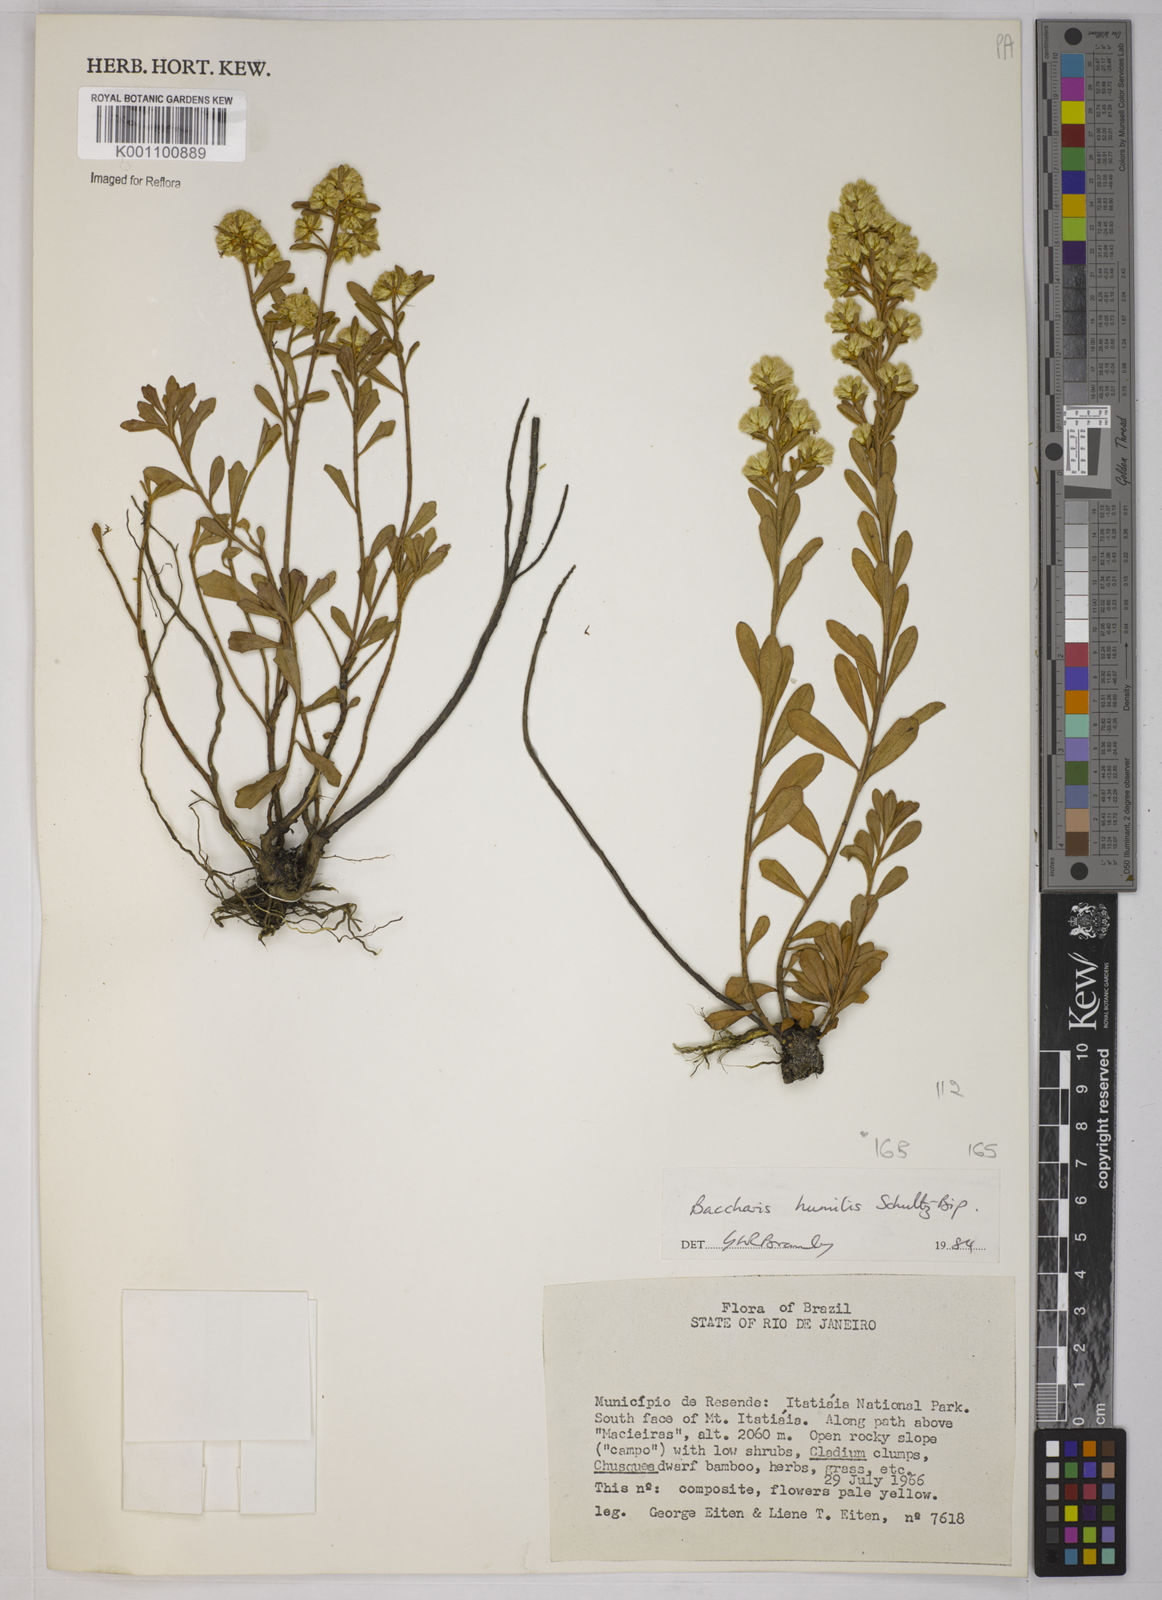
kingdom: Plantae
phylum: Tracheophyta
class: Magnoliopsida
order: Asterales
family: Asteraceae
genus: Baccharis
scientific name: Baccharis humilis
